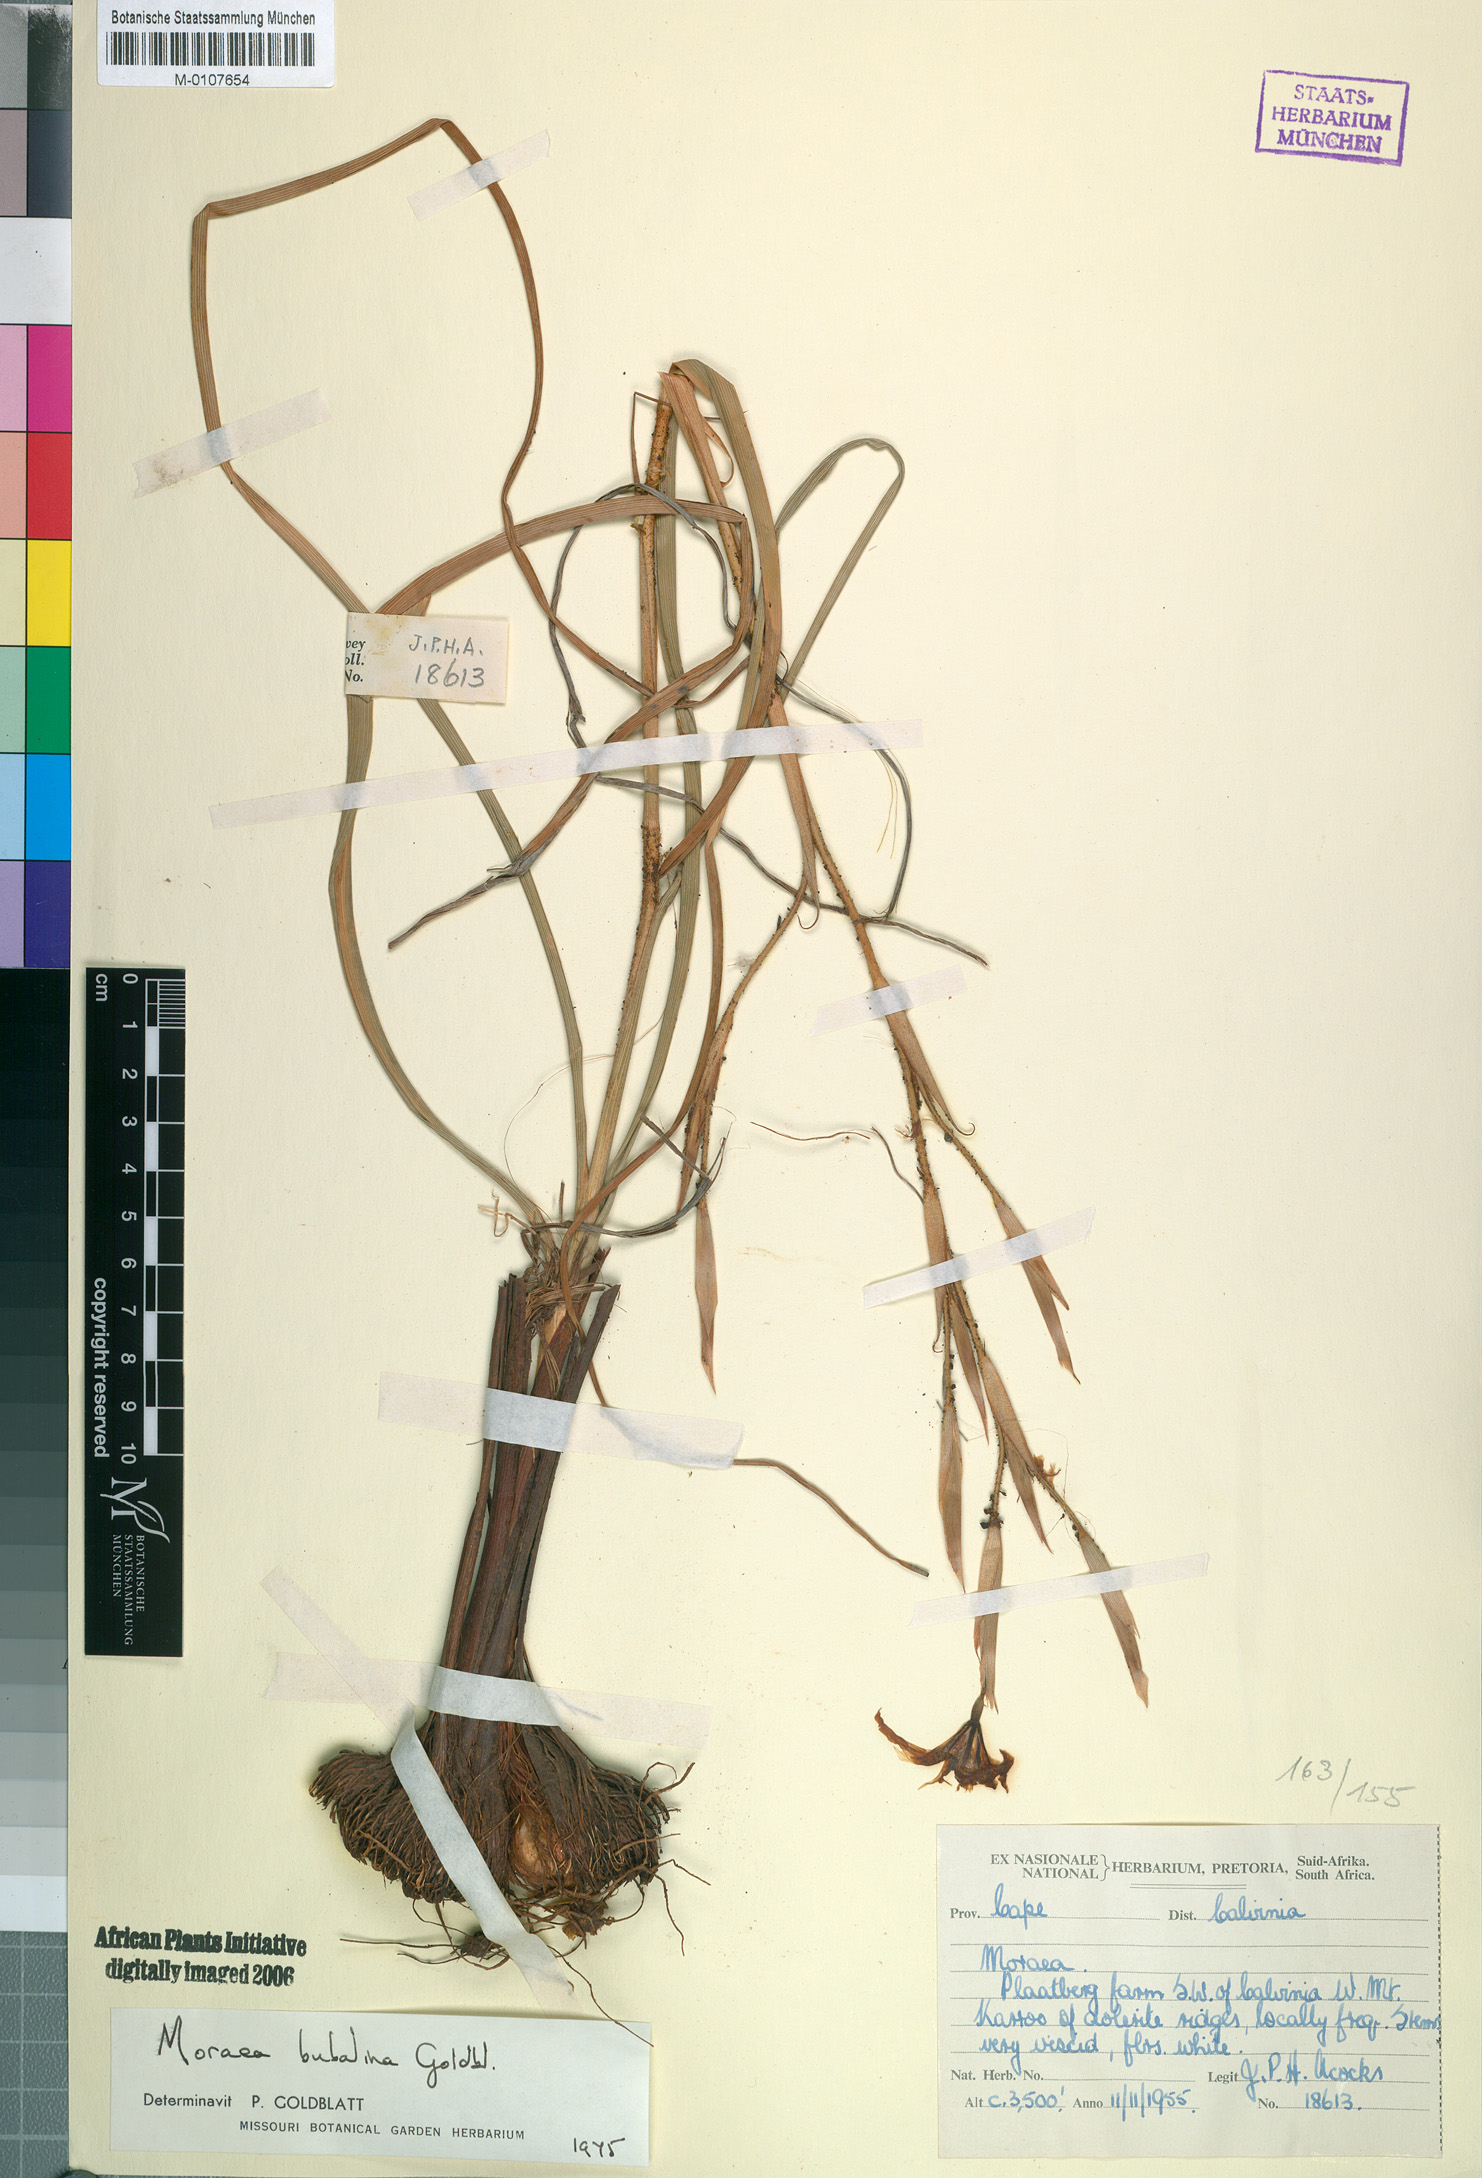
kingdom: Plantae
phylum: Tracheophyta
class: Liliopsida
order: Asparagales
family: Iridaceae
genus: Moraea
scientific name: Moraea bubalina
